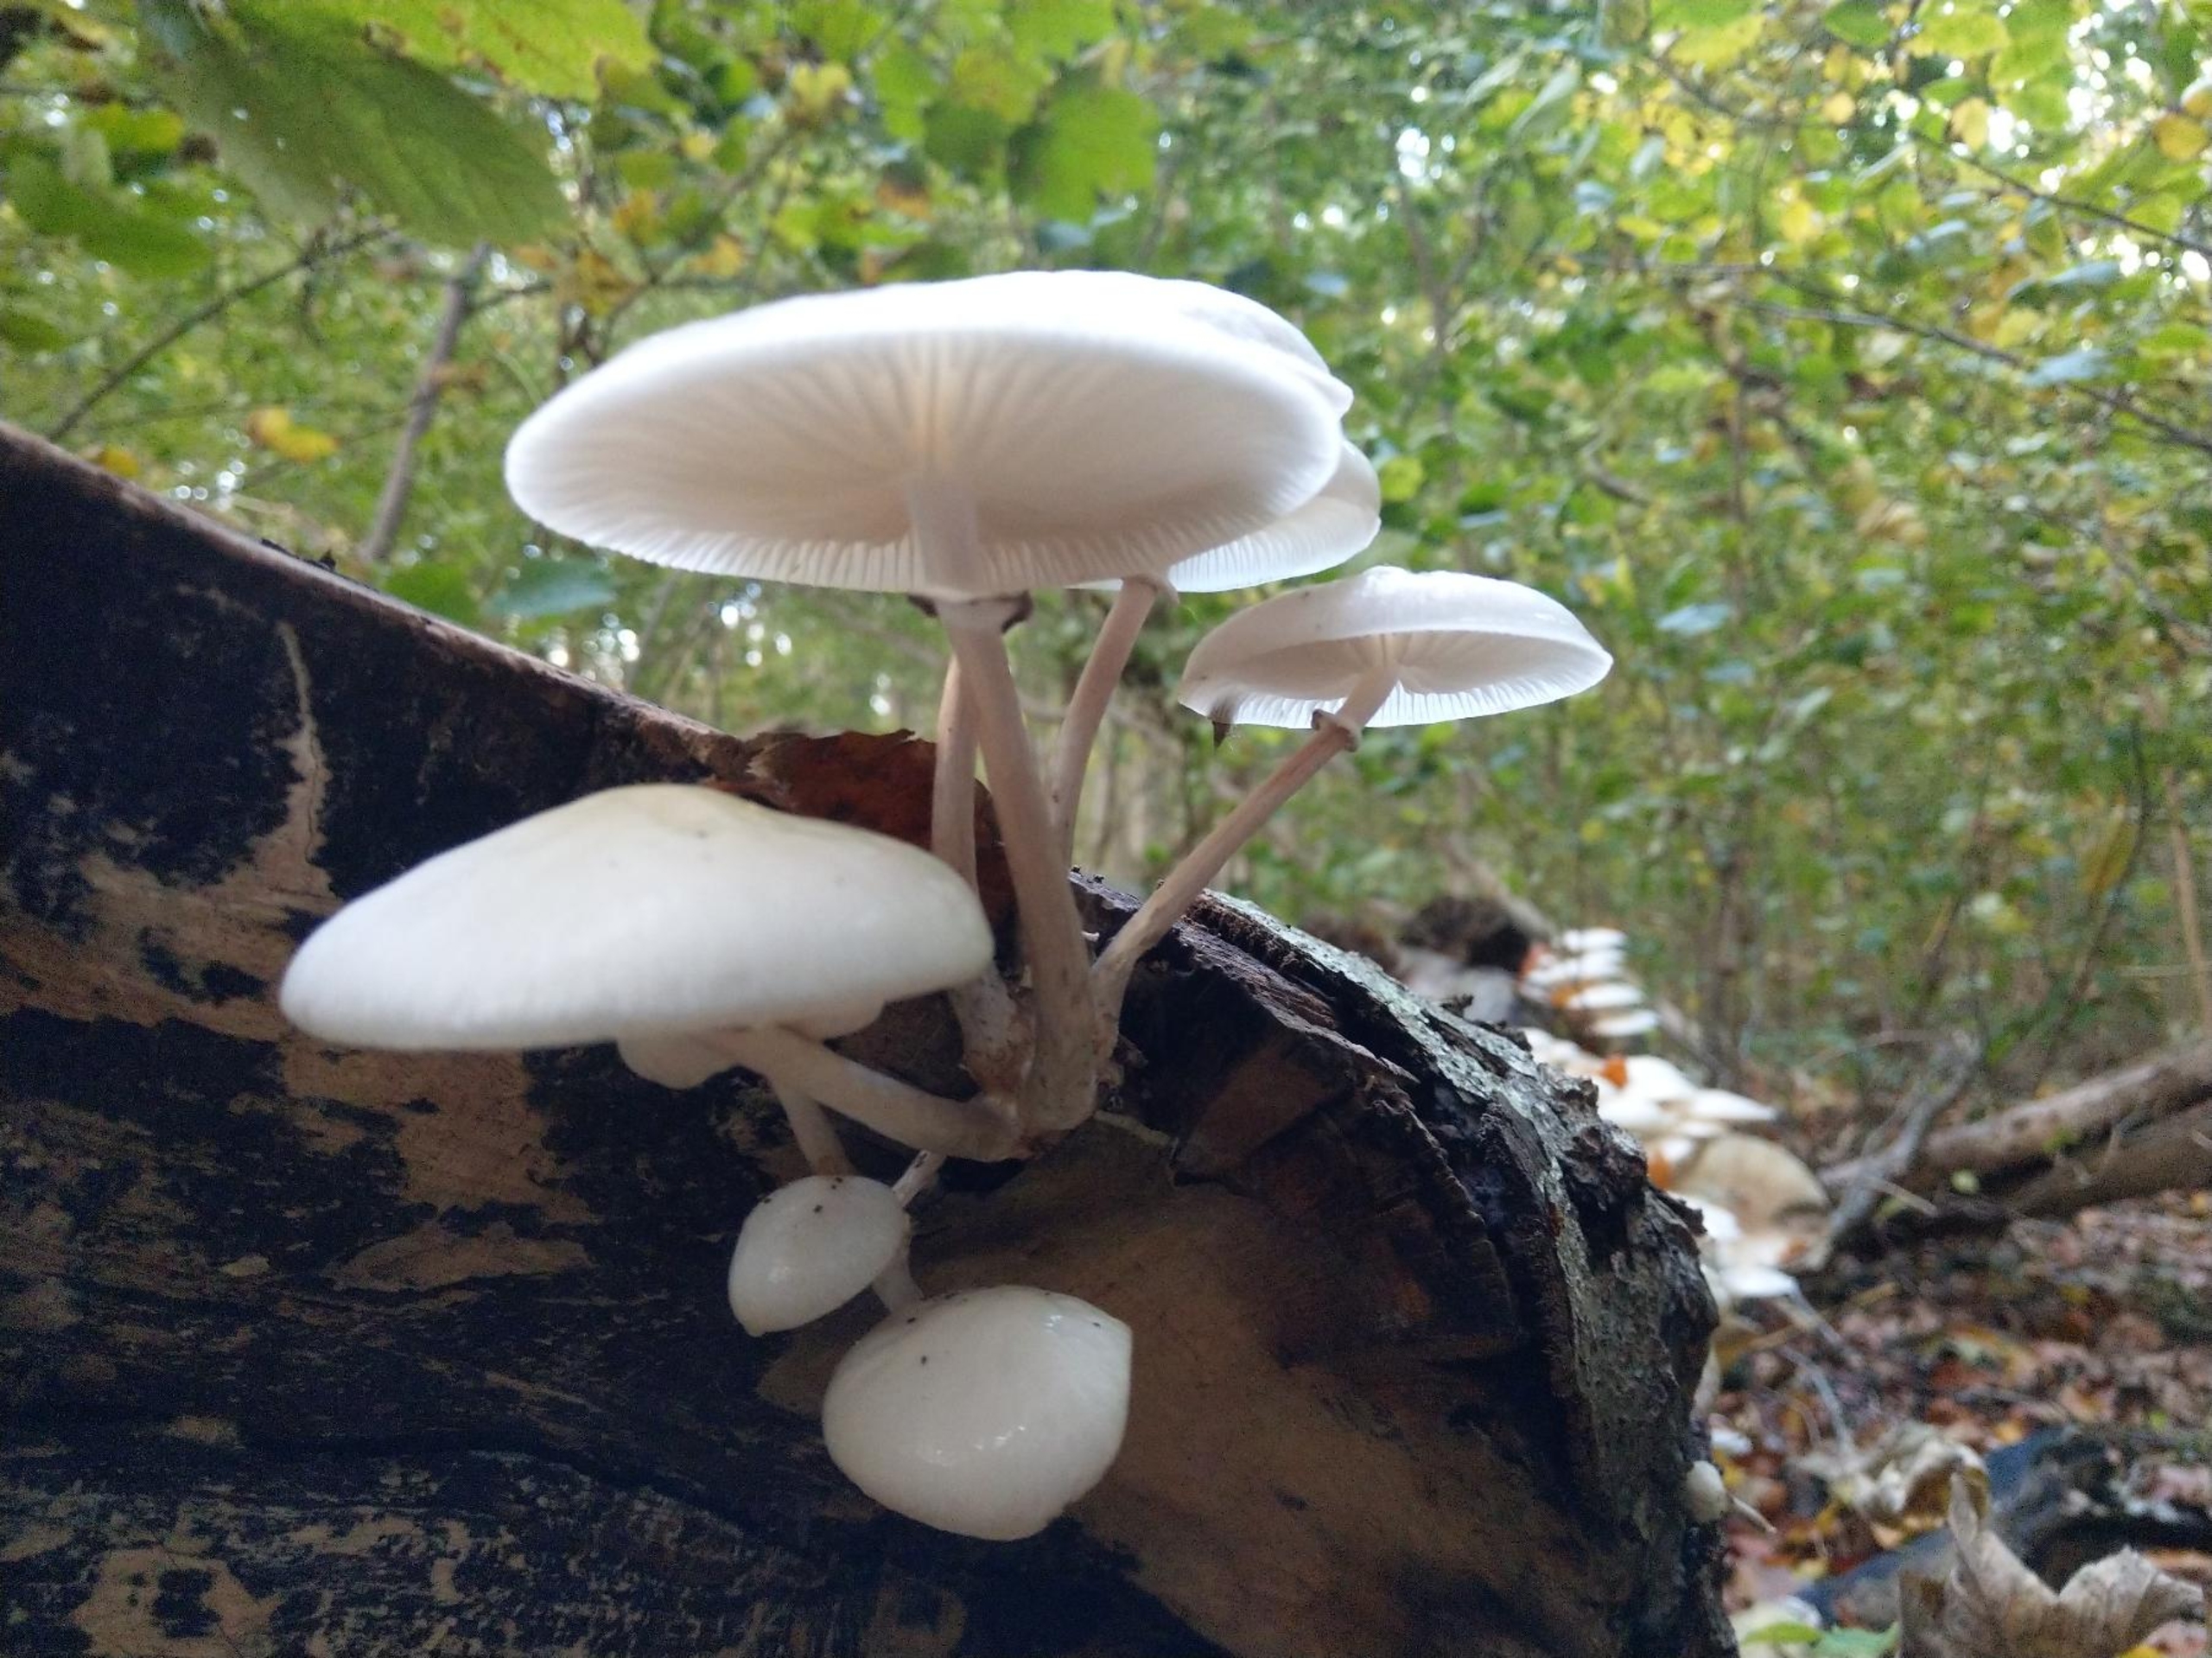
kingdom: Fungi
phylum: Basidiomycota
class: Agaricomycetes
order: Agaricales
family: Physalacriaceae
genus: Mucidula
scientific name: Mucidula
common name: Porcelænshat
